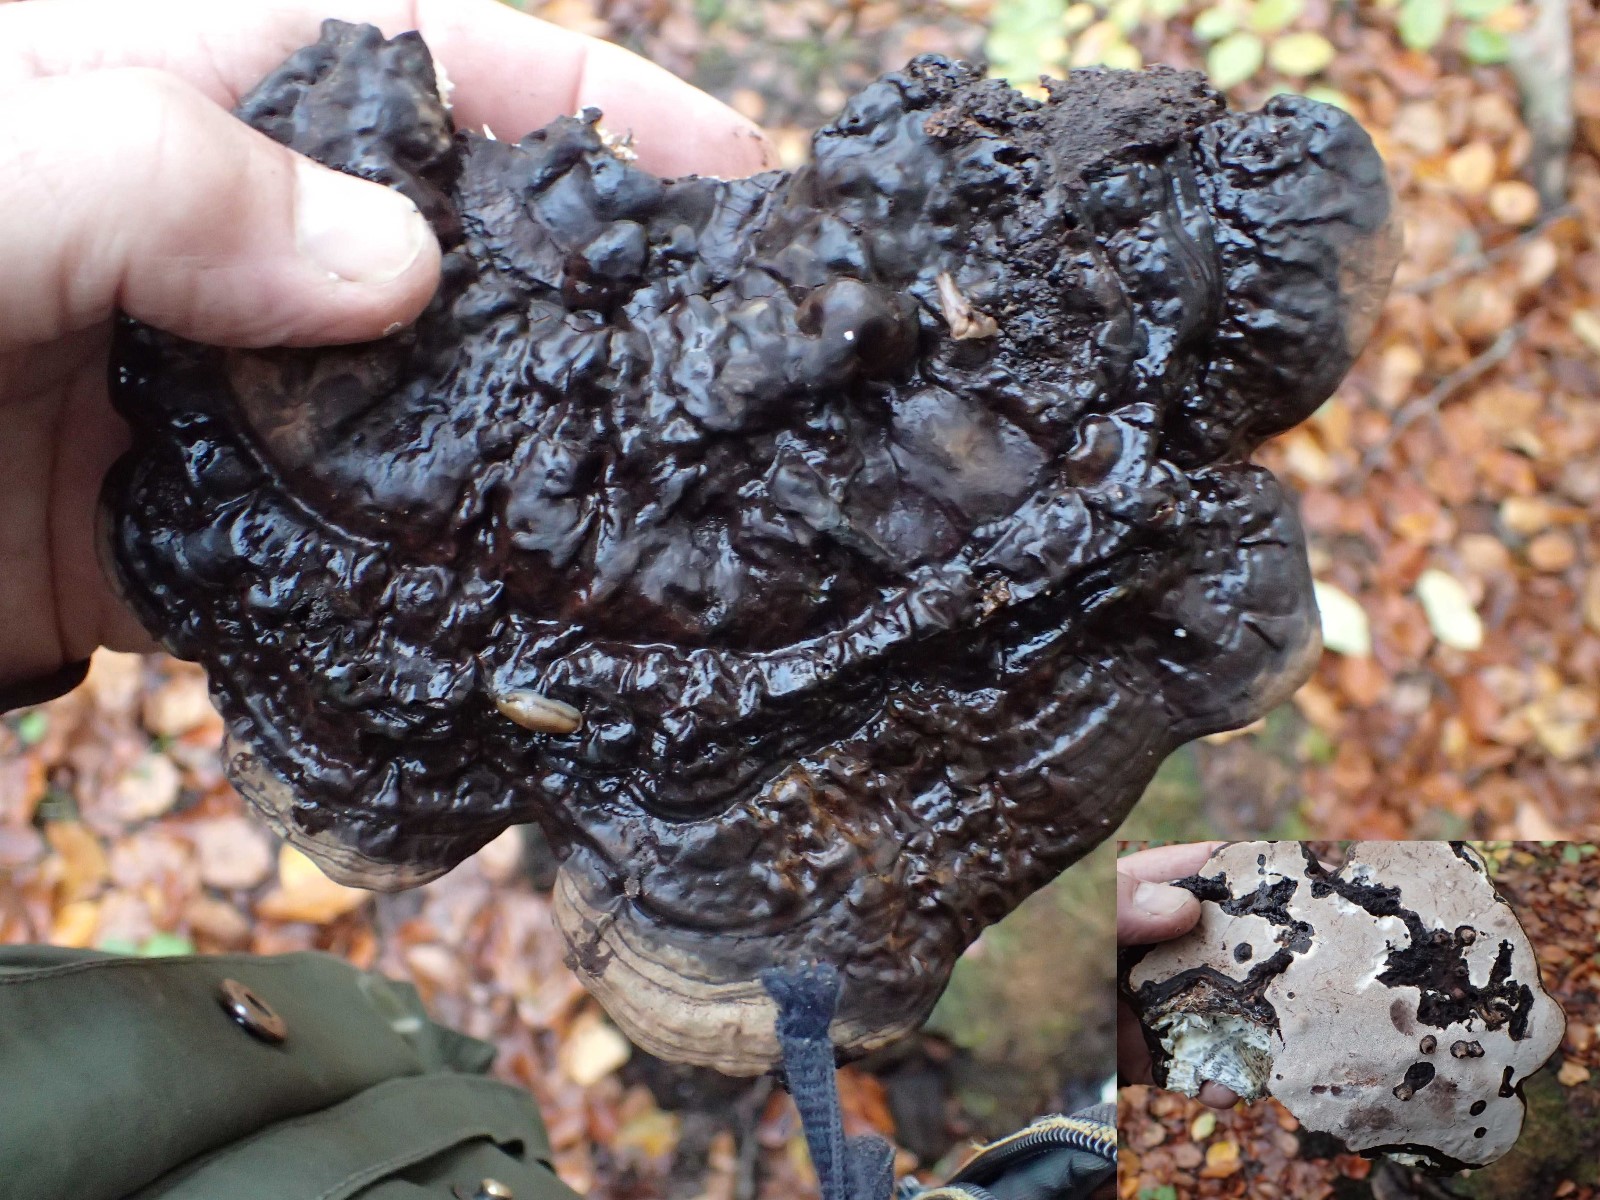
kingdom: Fungi
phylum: Basidiomycota
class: Agaricomycetes
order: Polyporales
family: Polyporaceae
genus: Ganoderma
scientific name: Ganoderma applanatum
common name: flad lakporesvamp
